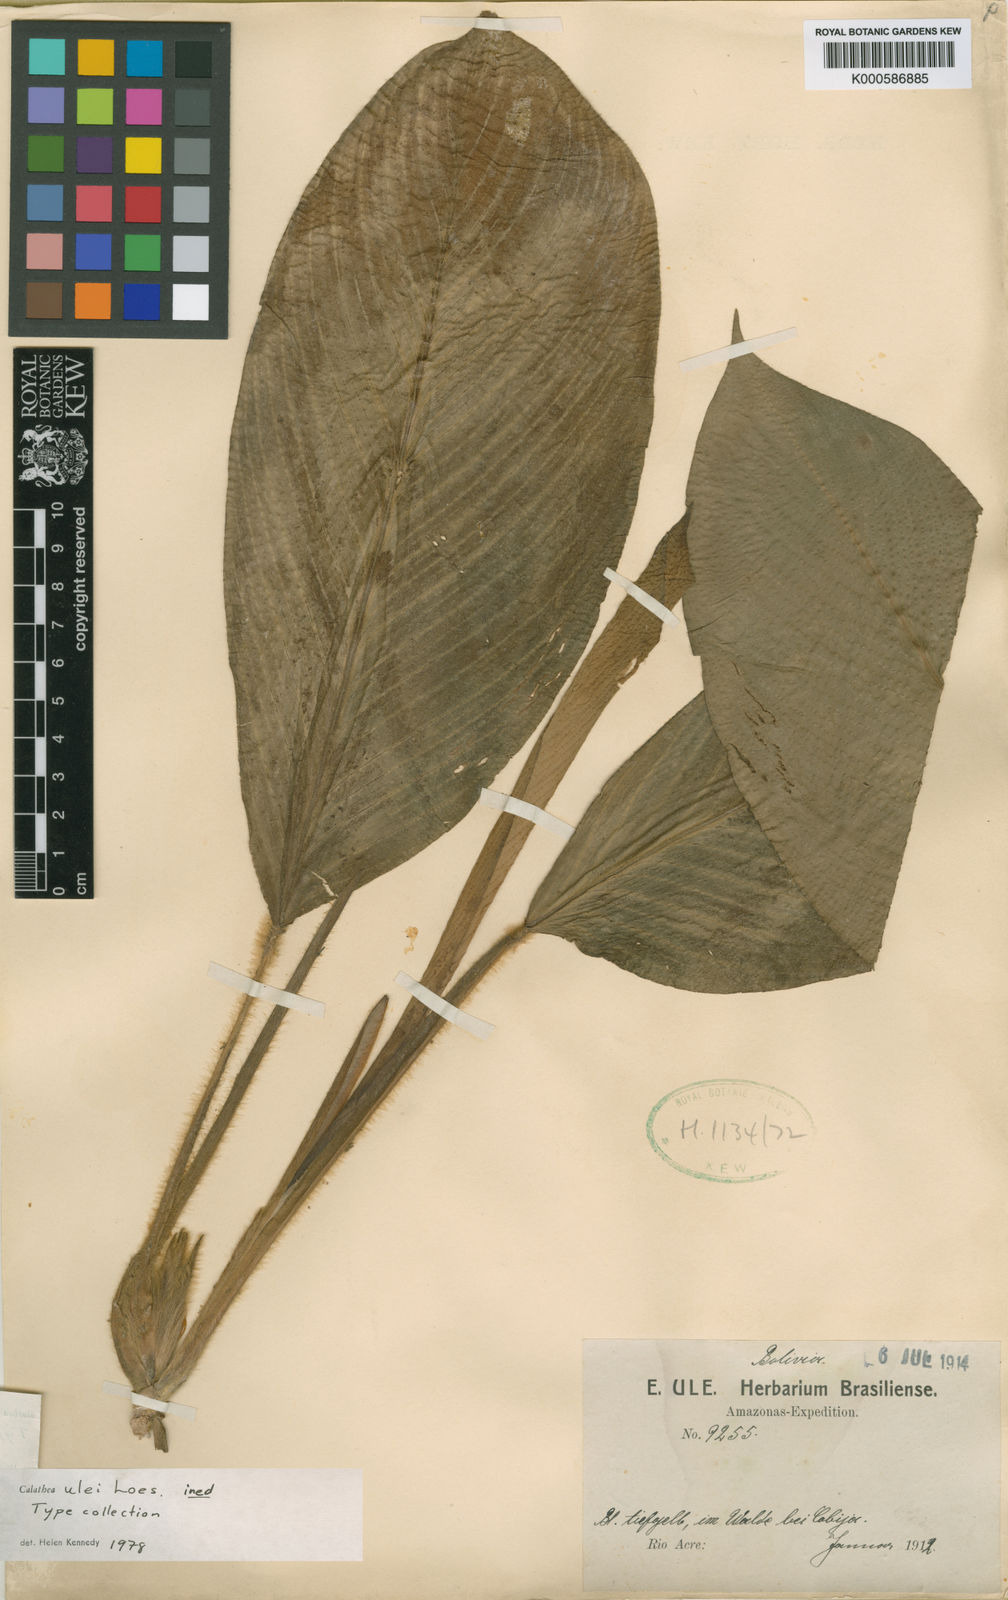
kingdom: Plantae
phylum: Tracheophyta
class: Liliopsida
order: Zingiberales
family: Marantaceae
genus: Calathea
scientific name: Calathea
